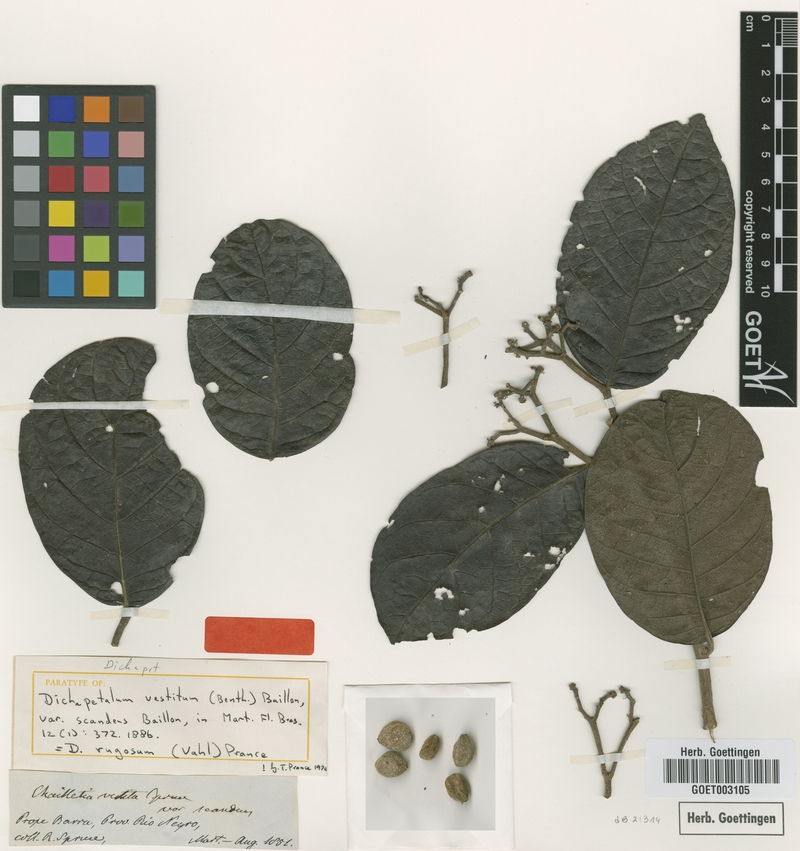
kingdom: Plantae
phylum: Tracheophyta
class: Magnoliopsida
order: Malpighiales
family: Dichapetalaceae
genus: Dichapetalum
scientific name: Dichapetalum rugosum
